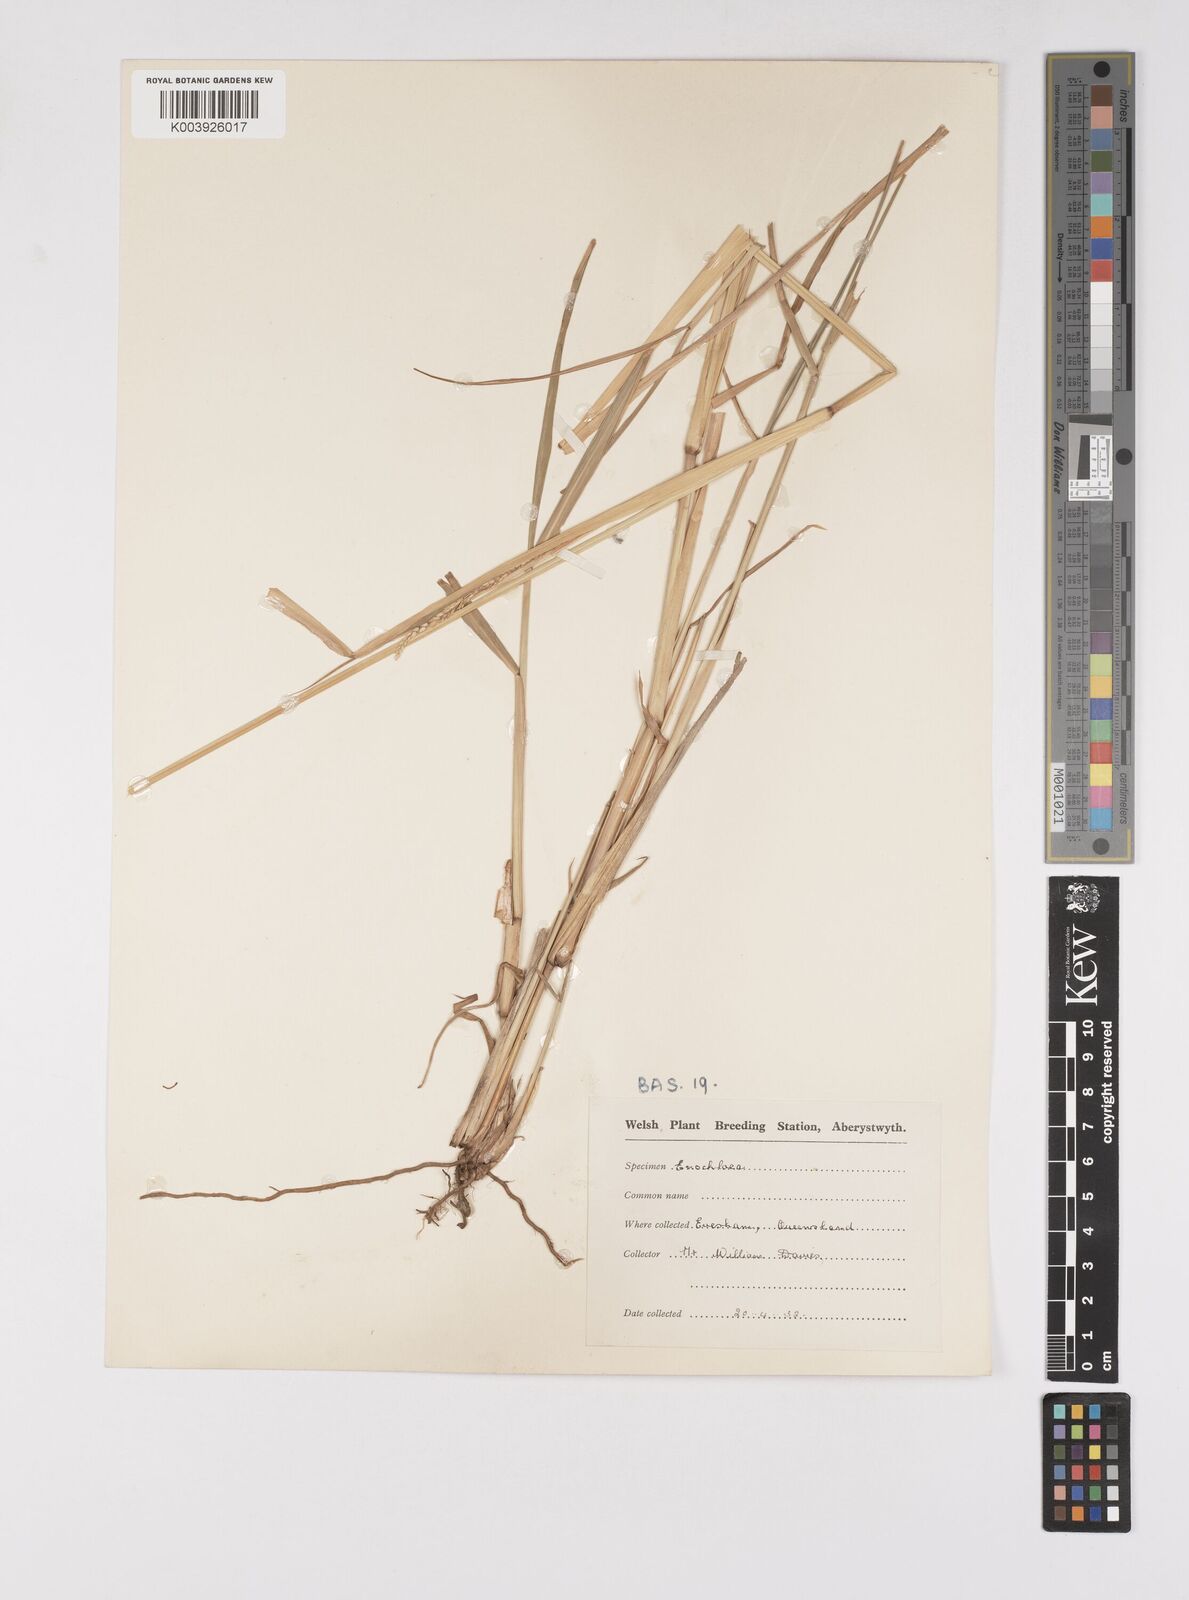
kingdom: Plantae
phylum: Tracheophyta
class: Liliopsida
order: Poales
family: Poaceae
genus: Eriochloa
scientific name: Eriochloa
